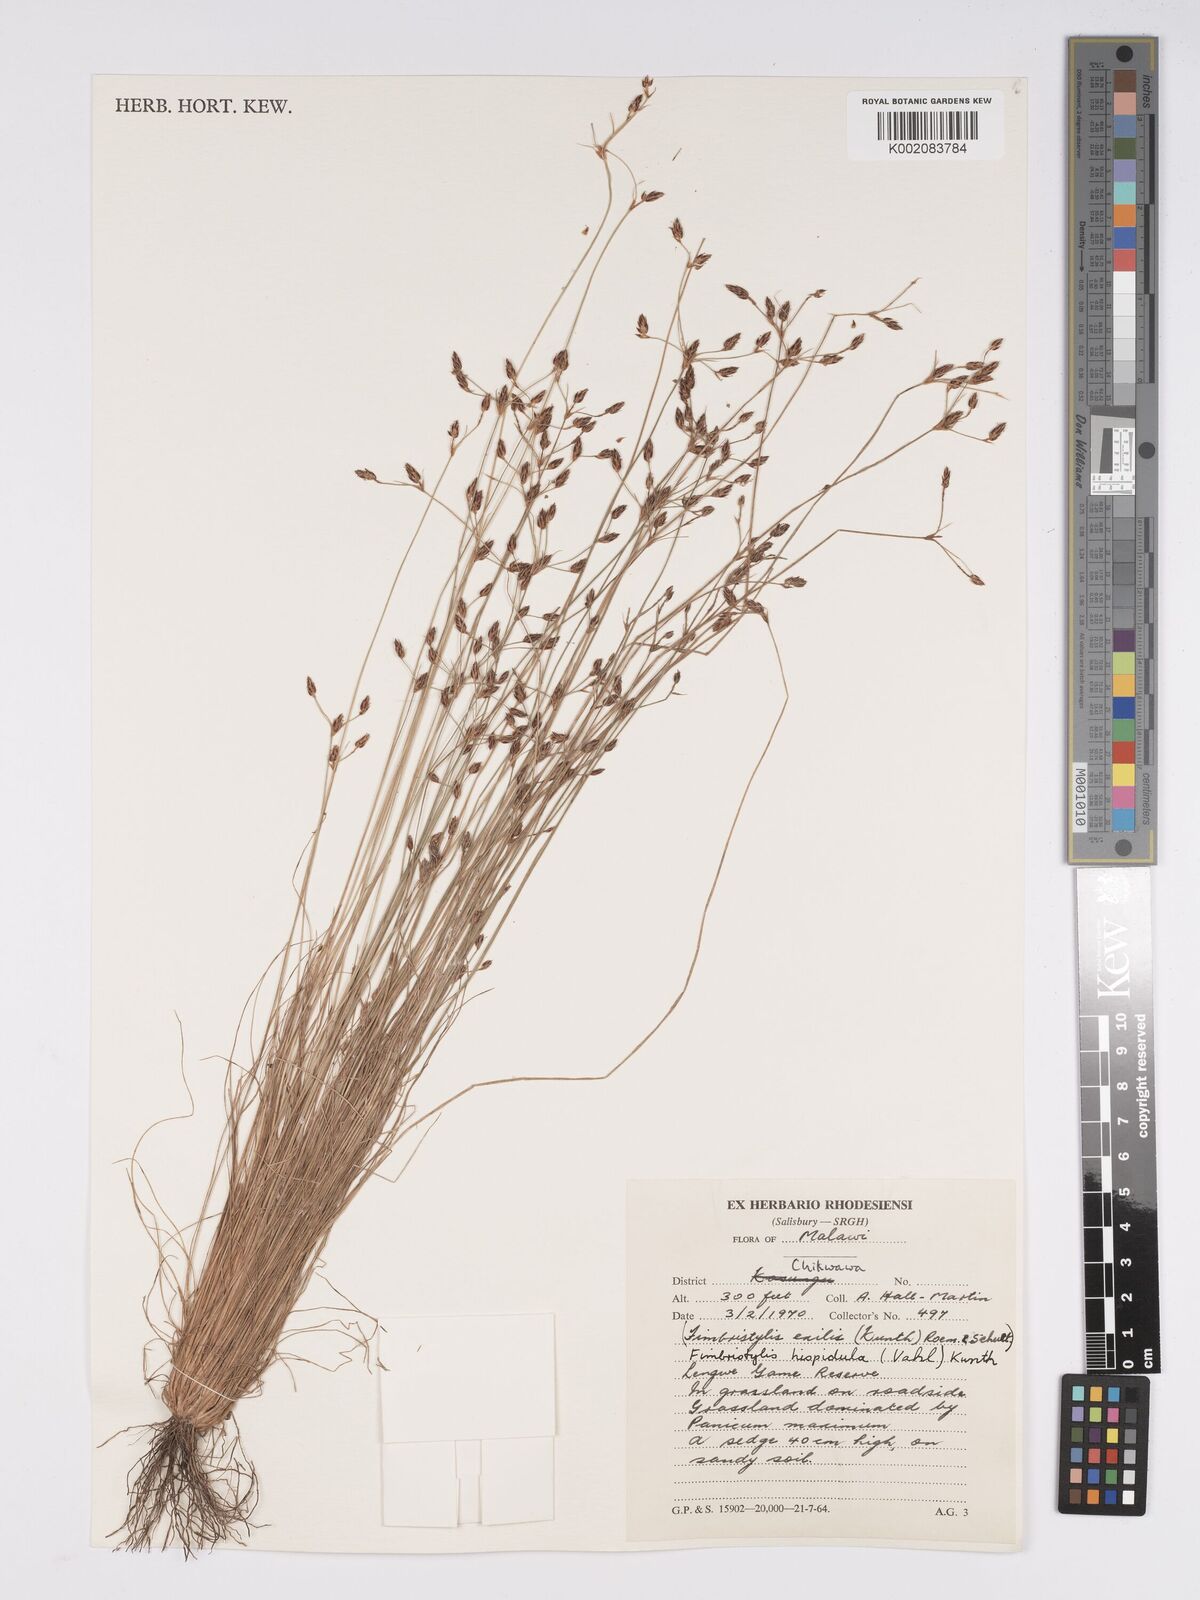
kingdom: Plantae
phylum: Tracheophyta
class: Liliopsida
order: Poales
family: Cyperaceae
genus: Bulbostylis
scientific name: Bulbostylis hispidula
